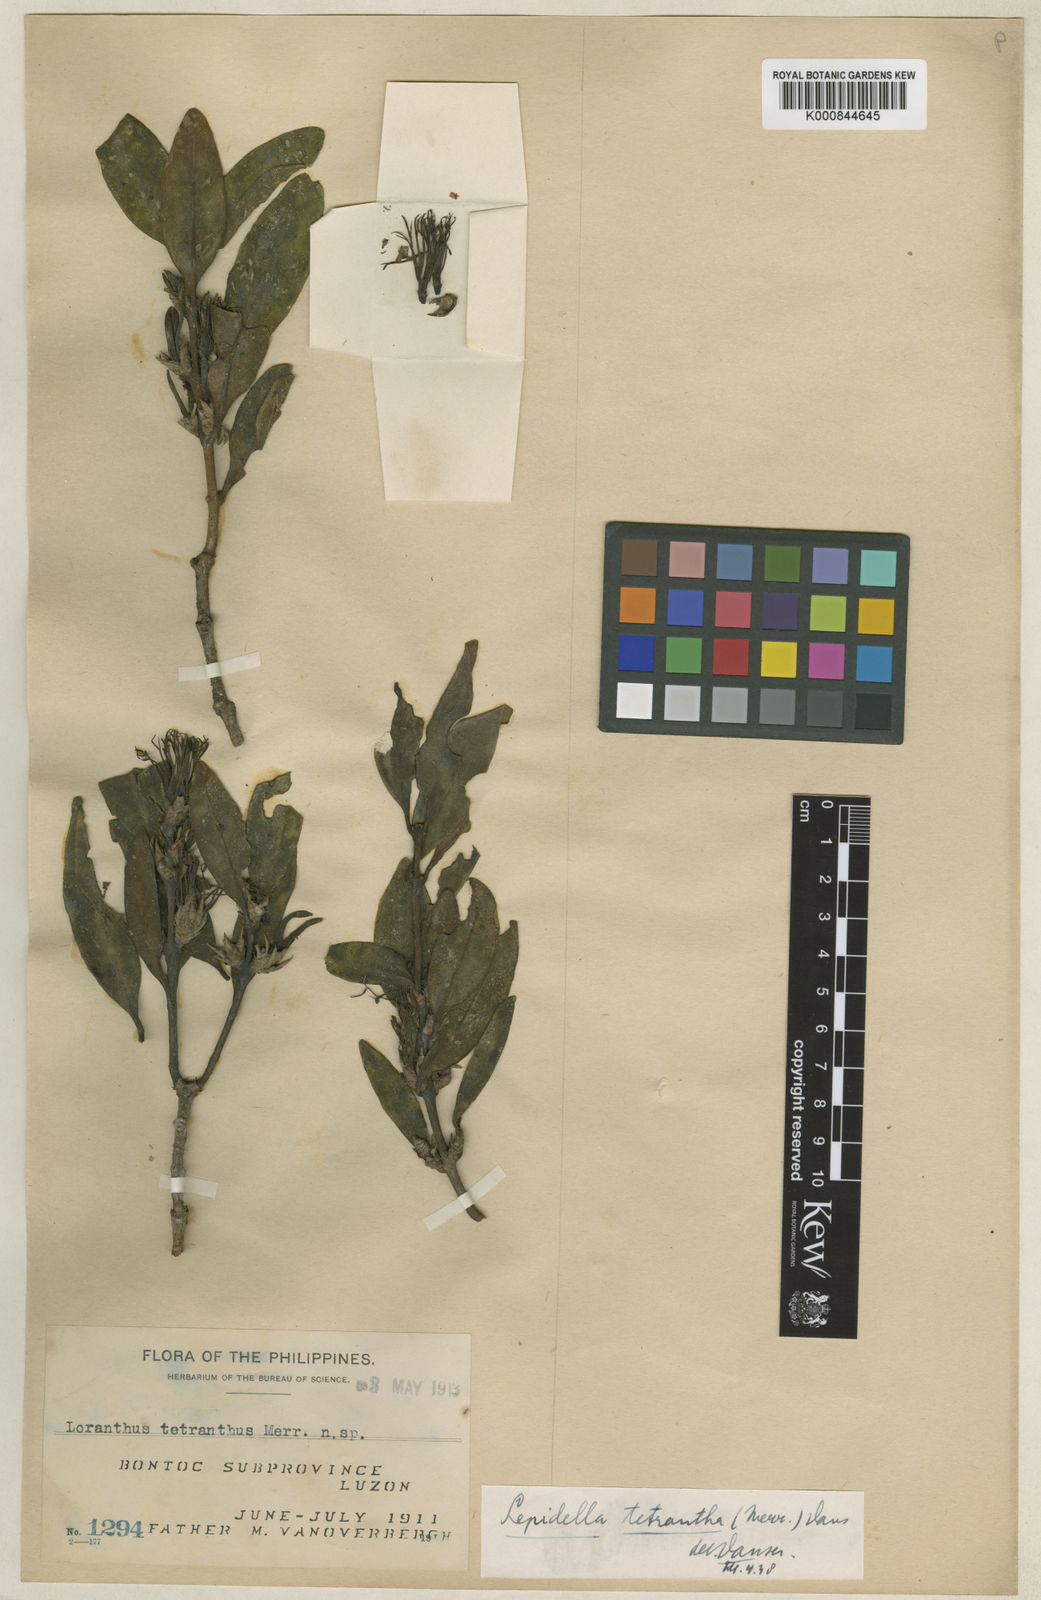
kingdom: Plantae
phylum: Tracheophyta
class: Magnoliopsida
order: Santalales
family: Loranthaceae
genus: Lepidaria
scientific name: Lepidaria tetrantha
